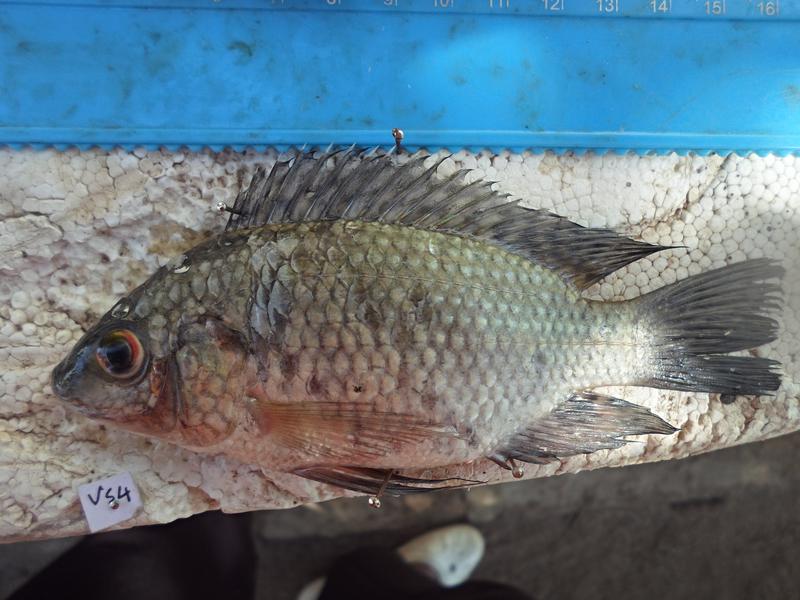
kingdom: Animalia
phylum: Chordata
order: Perciformes
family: Cichlidae
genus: Oreochromis
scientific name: Oreochromis leucostictus
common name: Blue spotted tilapia
